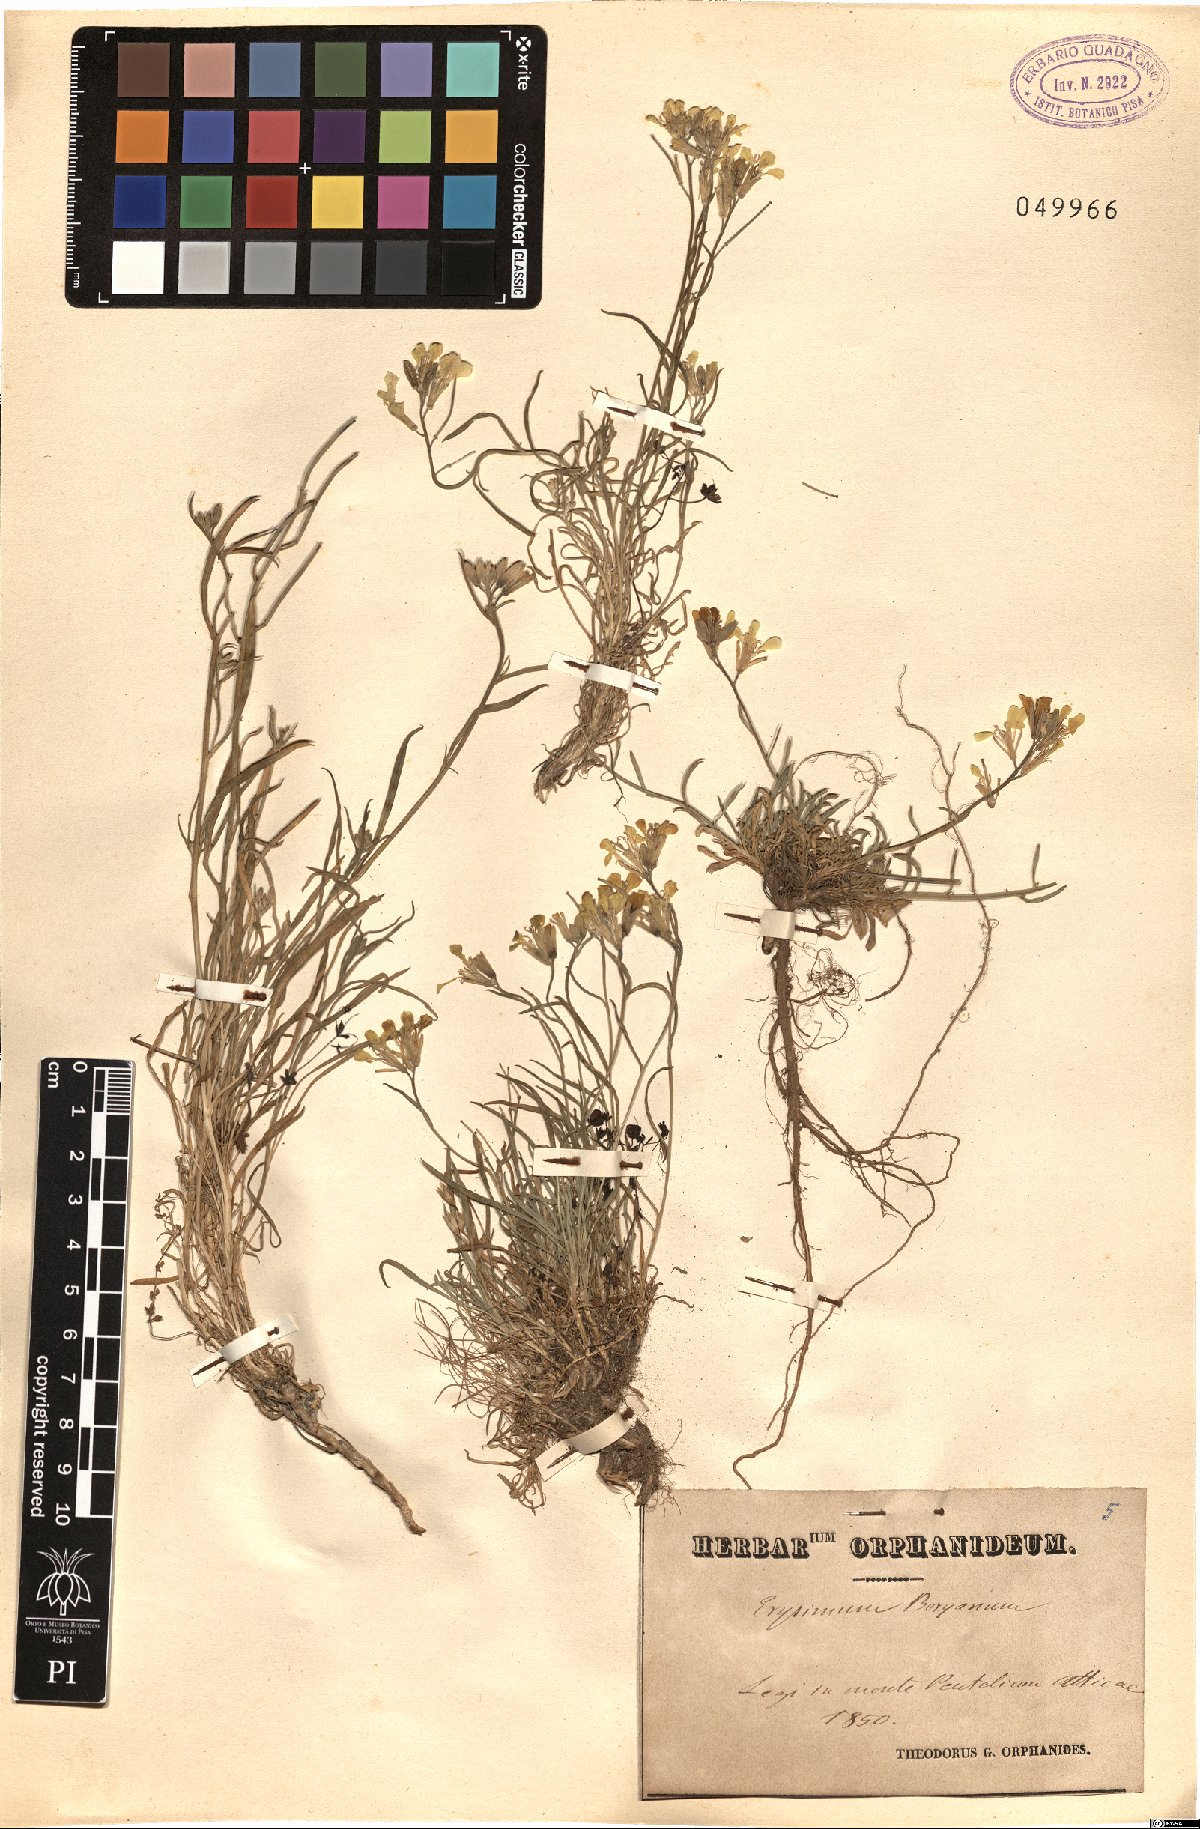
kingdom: Plantae
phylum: Tracheophyta
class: Magnoliopsida
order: Brassicales
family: Brassicaceae
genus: Erysimum
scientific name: Erysimum pusillum
